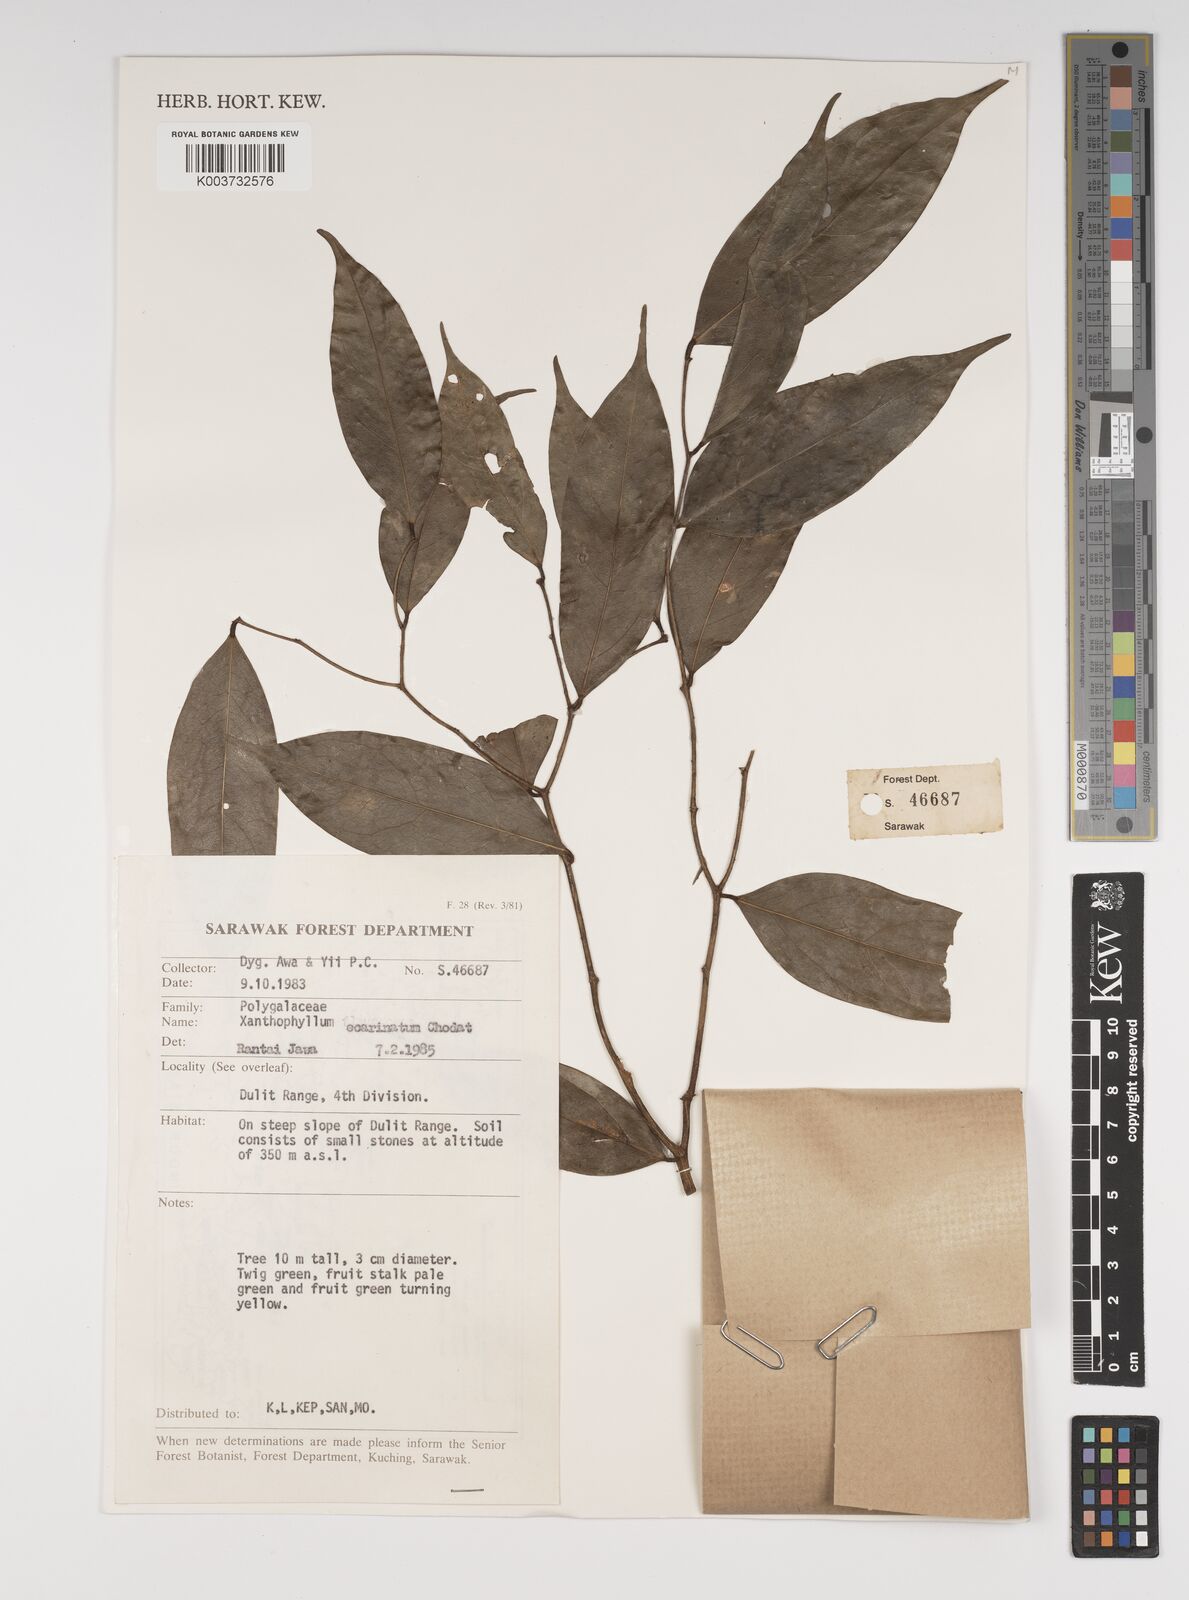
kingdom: Plantae
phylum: Tracheophyta
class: Magnoliopsida
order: Fabales
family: Polygalaceae
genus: Xanthophyllum
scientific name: Xanthophyllum ecarinatum
